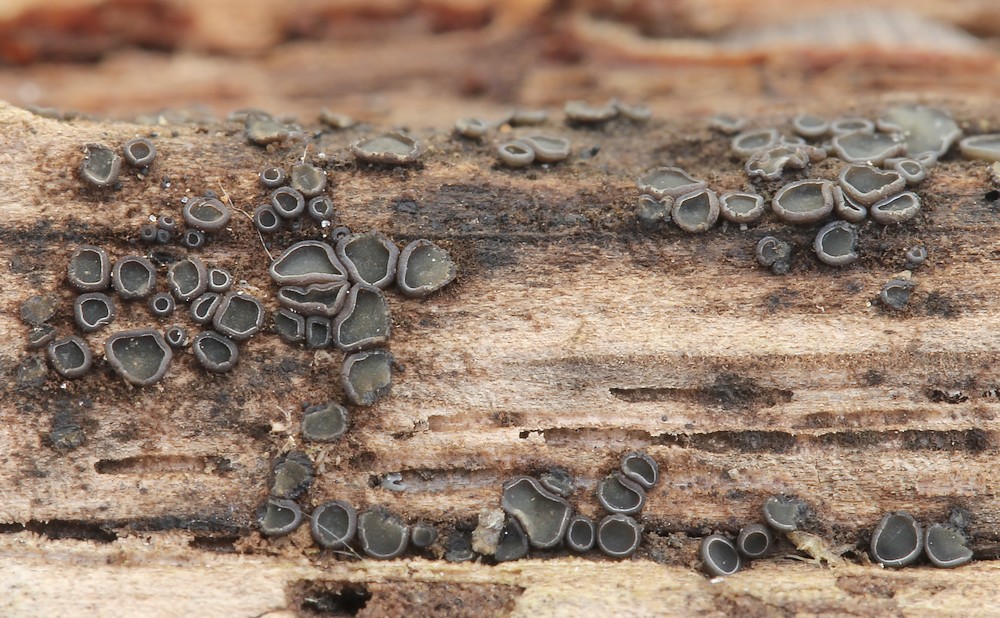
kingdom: Fungi
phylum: Ascomycota
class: Leotiomycetes
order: Helotiales
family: Mollisiaceae
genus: Mollisia
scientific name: Mollisia
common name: gråskive
